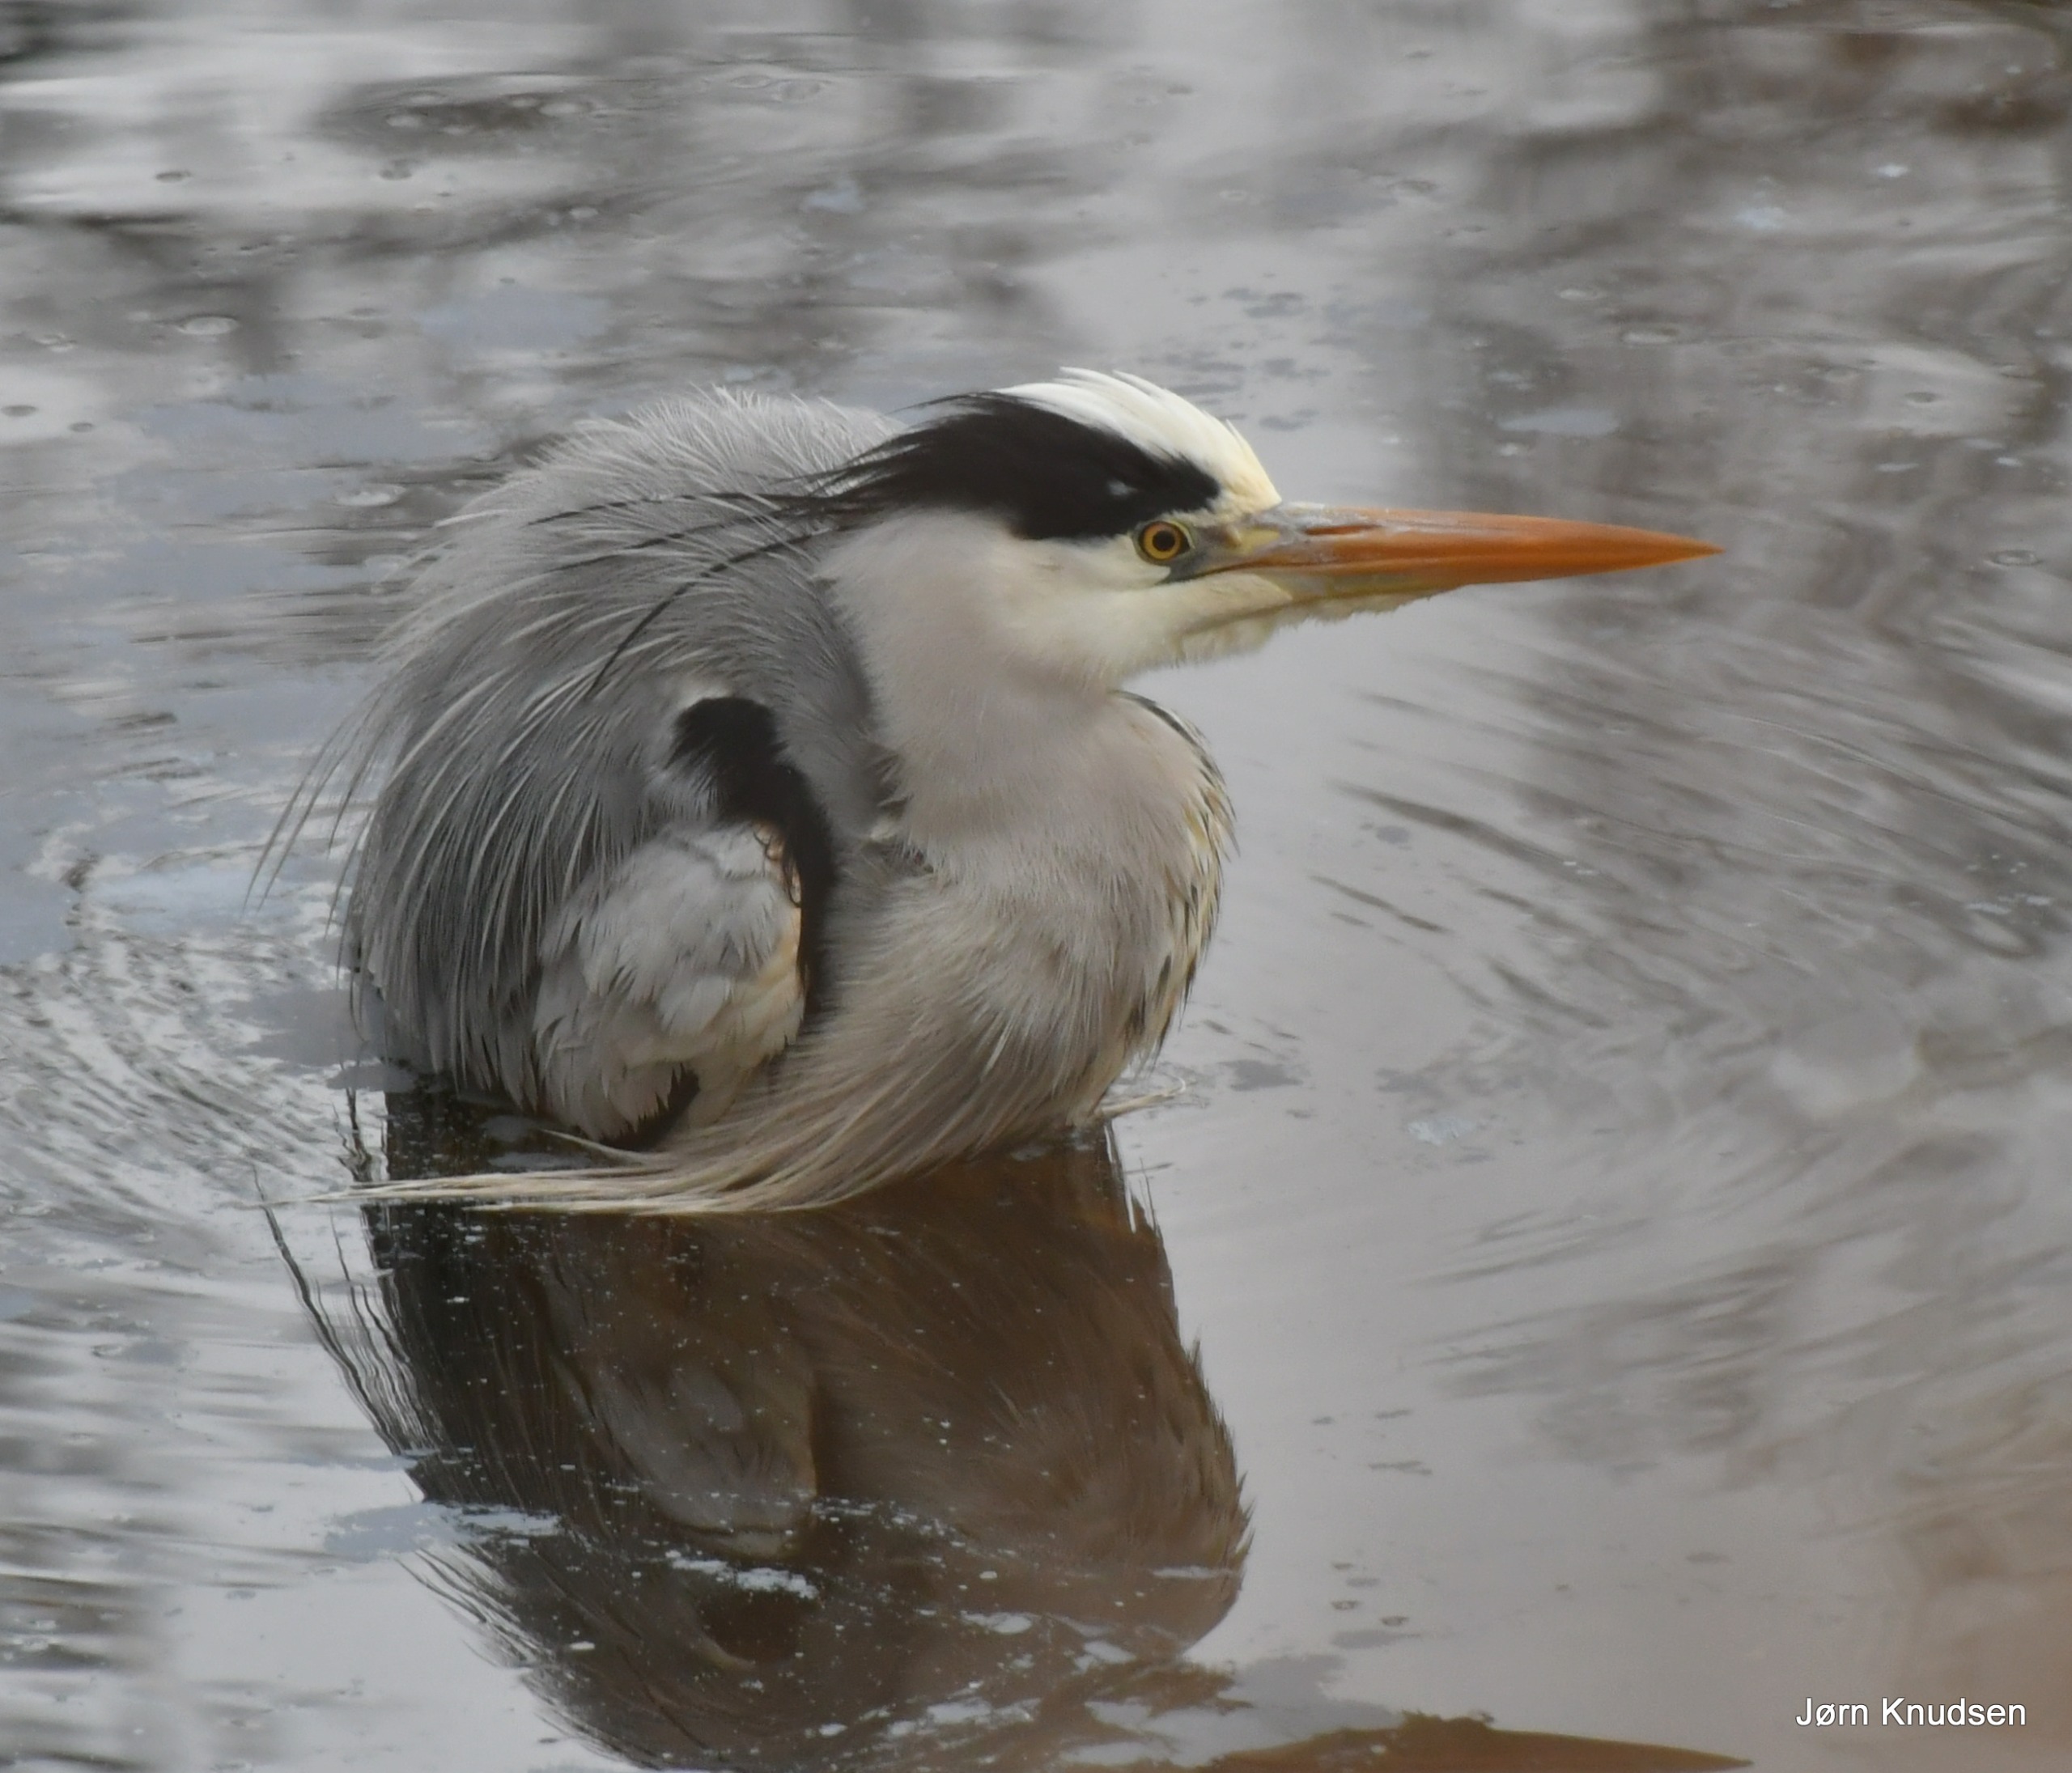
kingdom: Animalia
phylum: Chordata
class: Aves
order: Pelecaniformes
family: Ardeidae
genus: Ardea
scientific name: Ardea cinerea
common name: Fiskehejre
